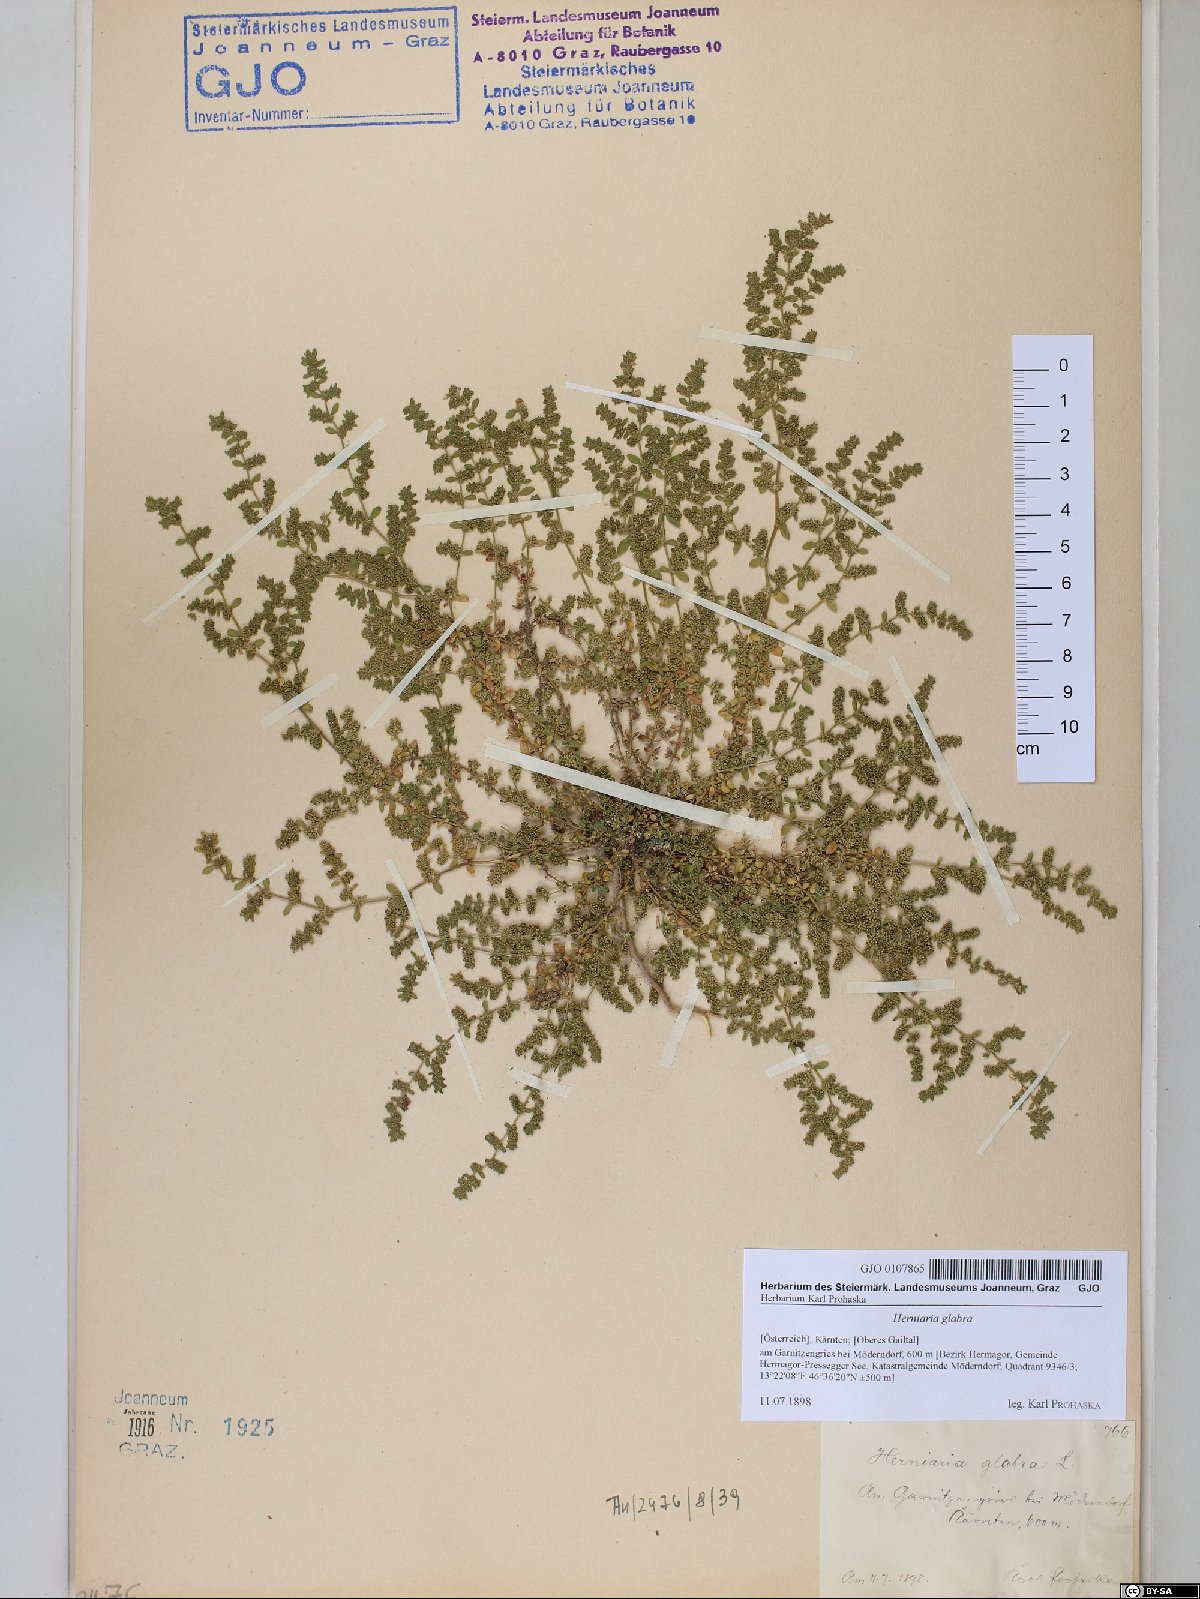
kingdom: Plantae
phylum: Tracheophyta
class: Magnoliopsida
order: Caryophyllales
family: Caryophyllaceae
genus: Herniaria
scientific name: Herniaria glabra
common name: Smooth rupturewort
